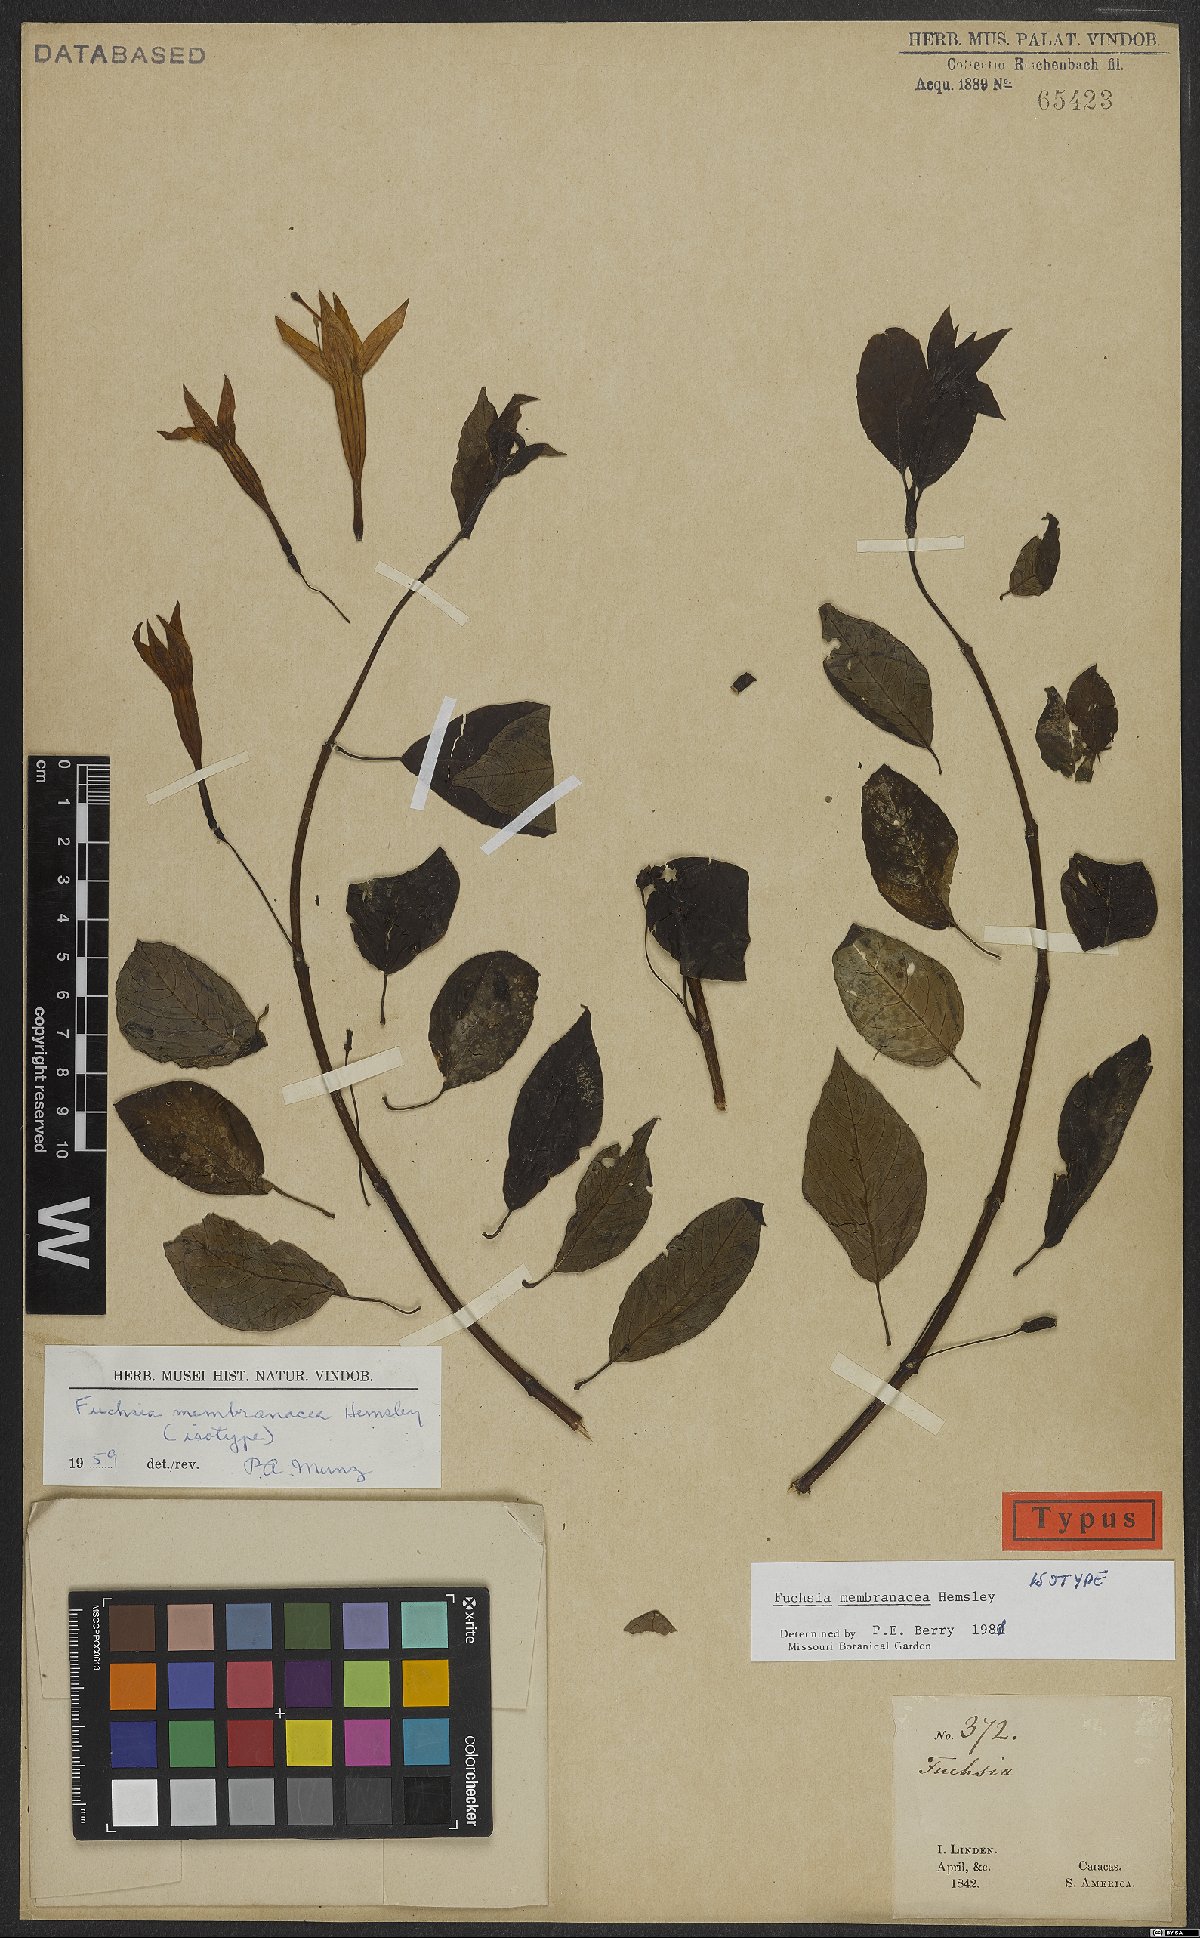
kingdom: Plantae
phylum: Tracheophyta
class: Magnoliopsida
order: Myrtales
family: Onagraceae
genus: Fuchsia
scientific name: Fuchsia membranacea
